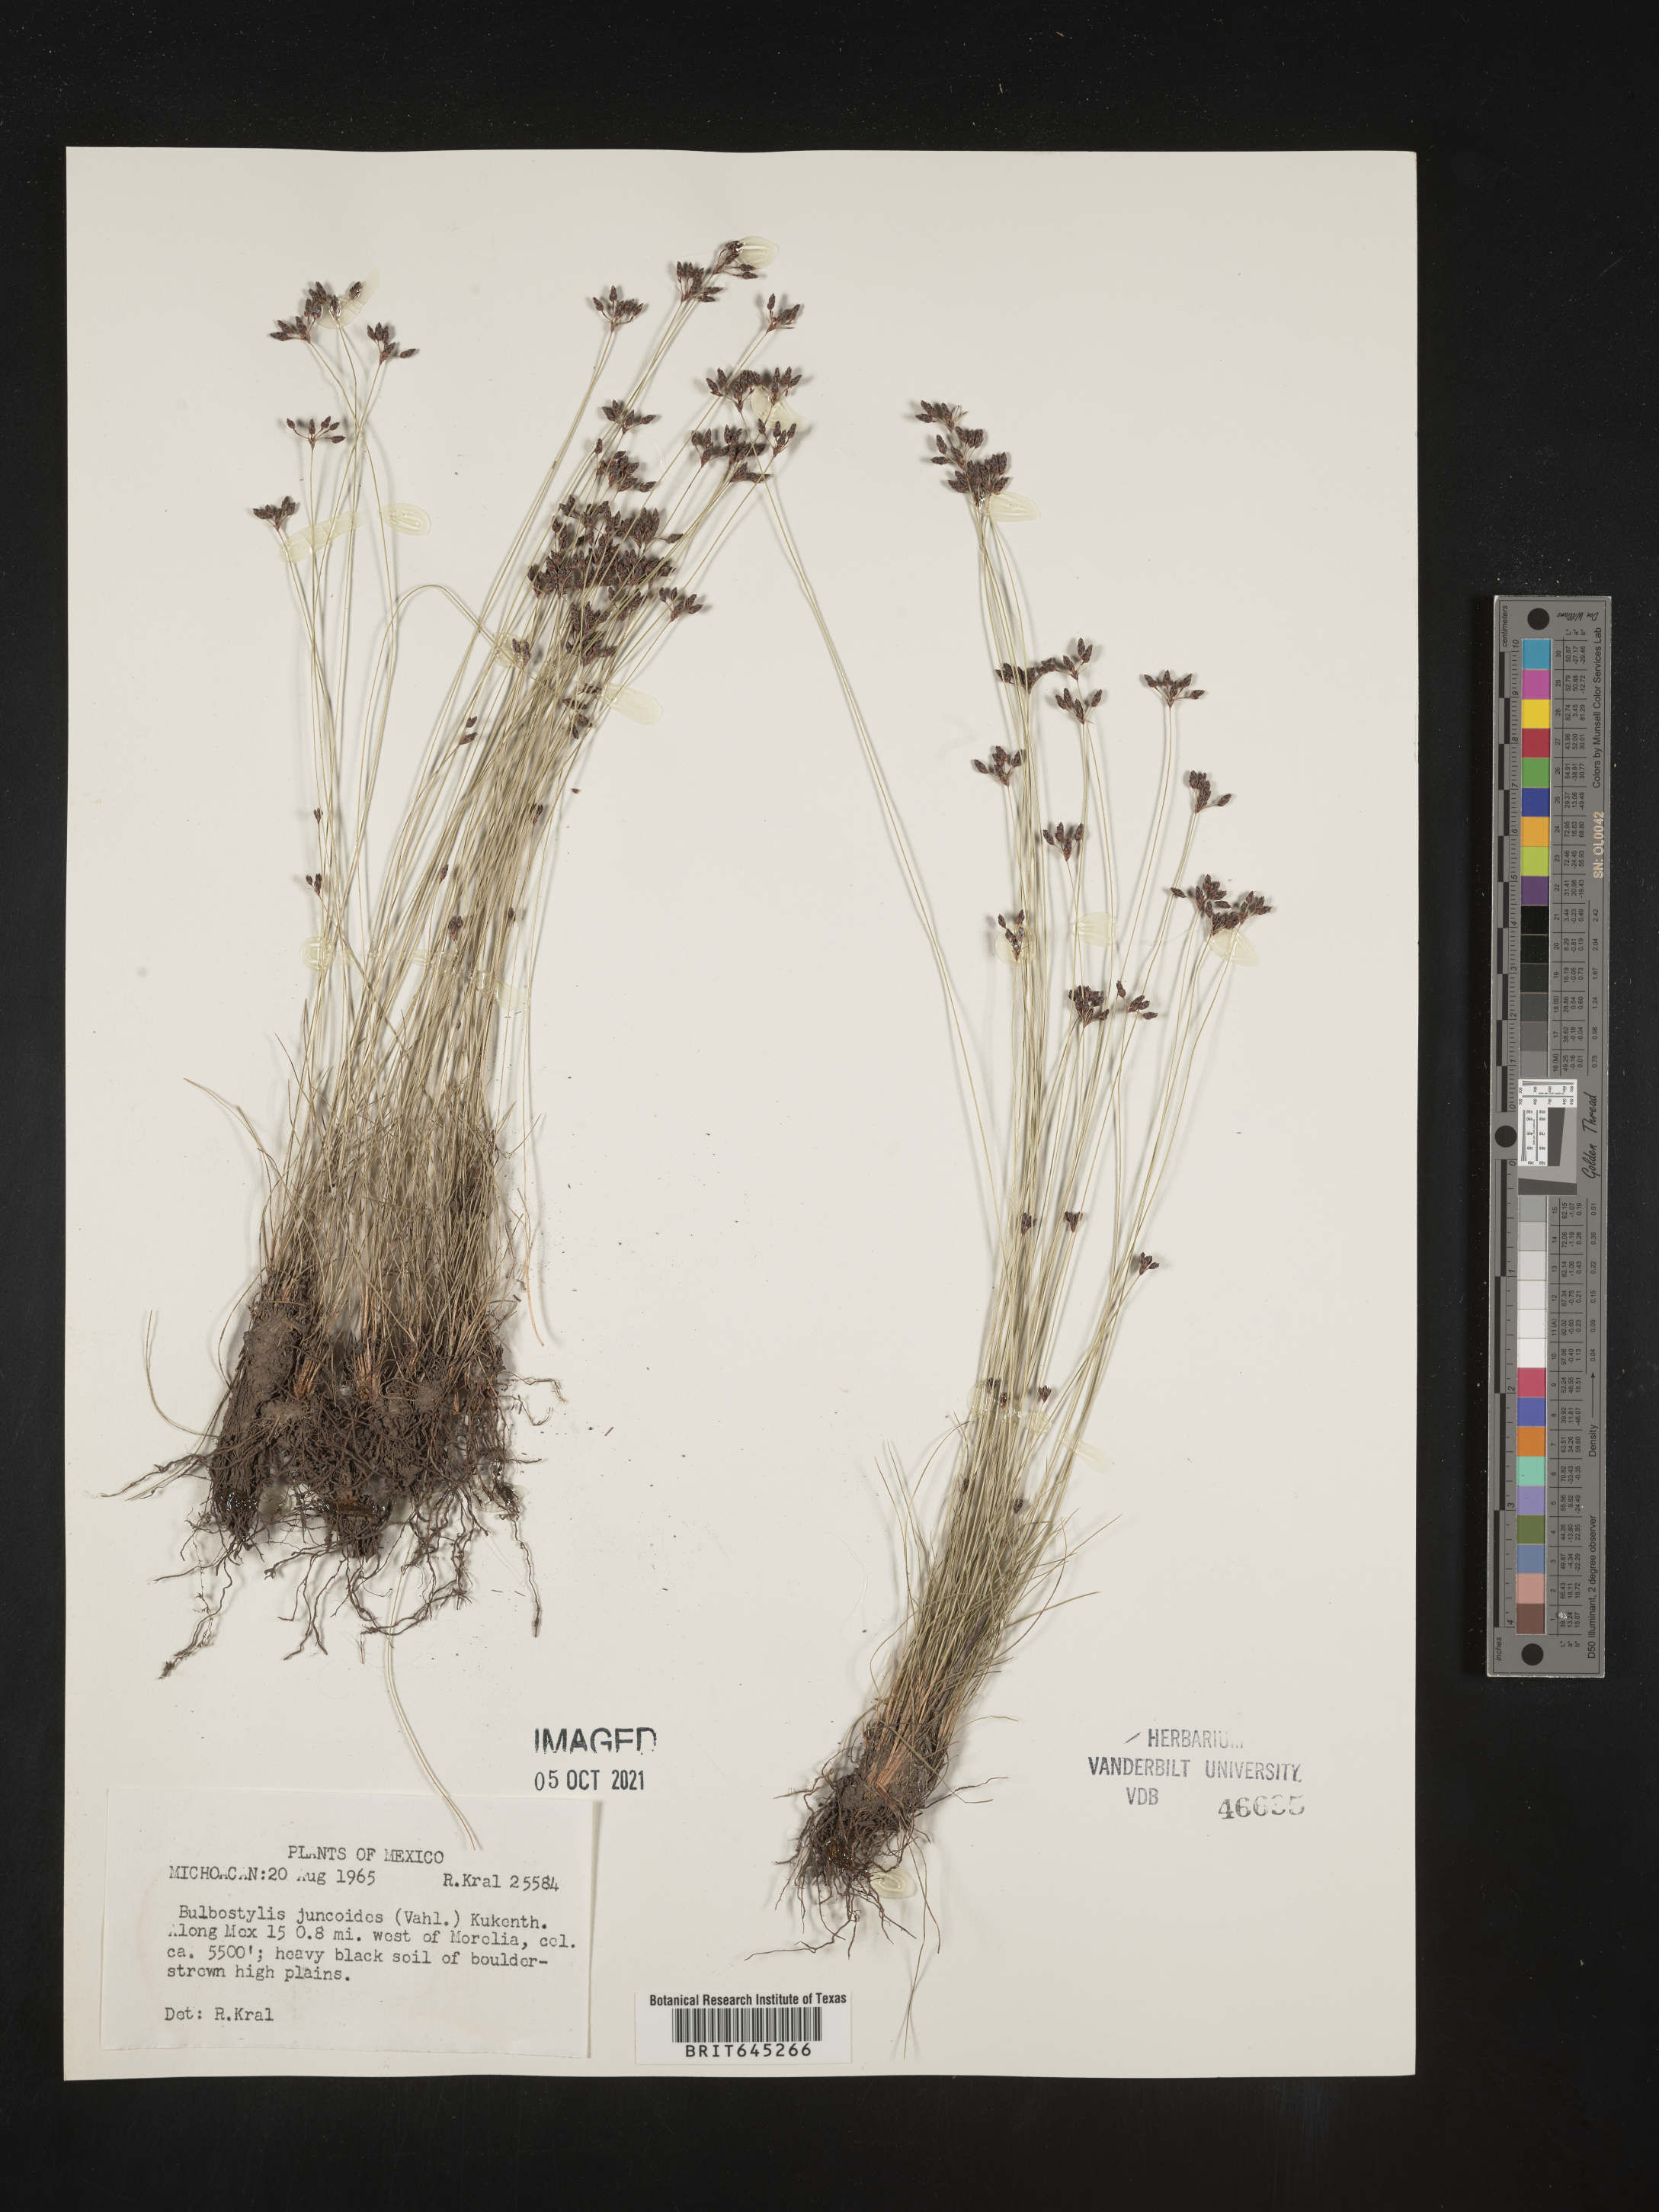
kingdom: Plantae
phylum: Tracheophyta
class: Liliopsida
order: Poales
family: Cyperaceae
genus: Bulbostylis
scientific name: Bulbostylis juncoides
